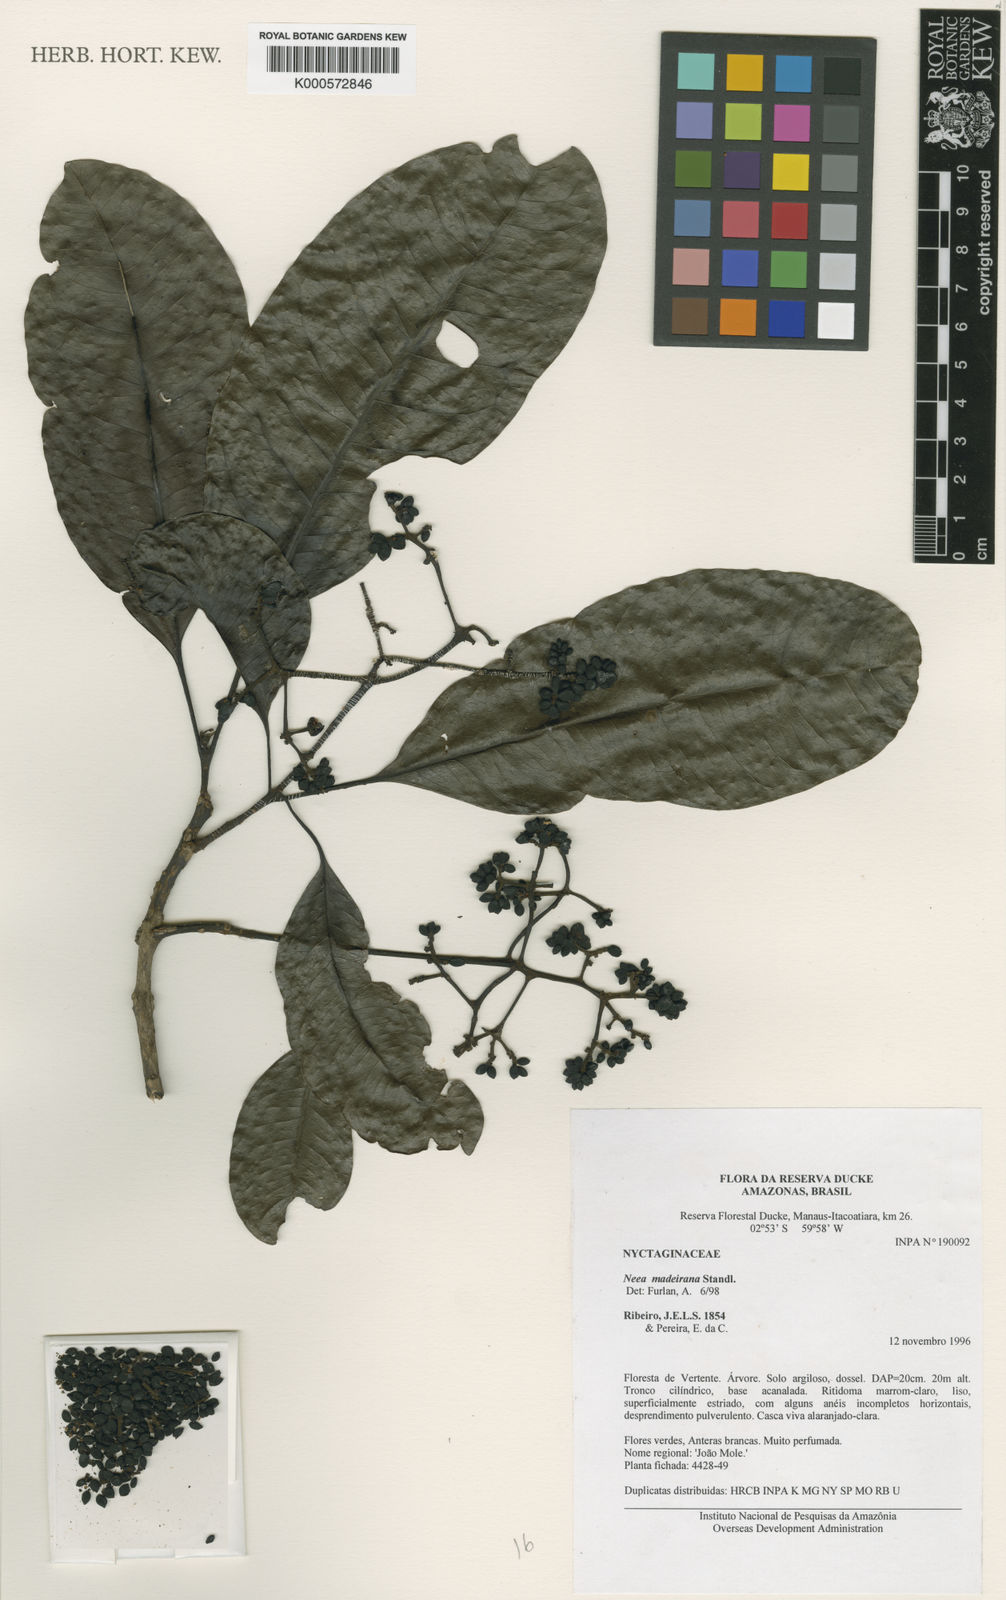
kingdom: Plantae
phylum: Tracheophyta
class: Magnoliopsida
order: Caryophyllales
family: Nyctaginaceae
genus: Neea
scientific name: Neea madeirana
